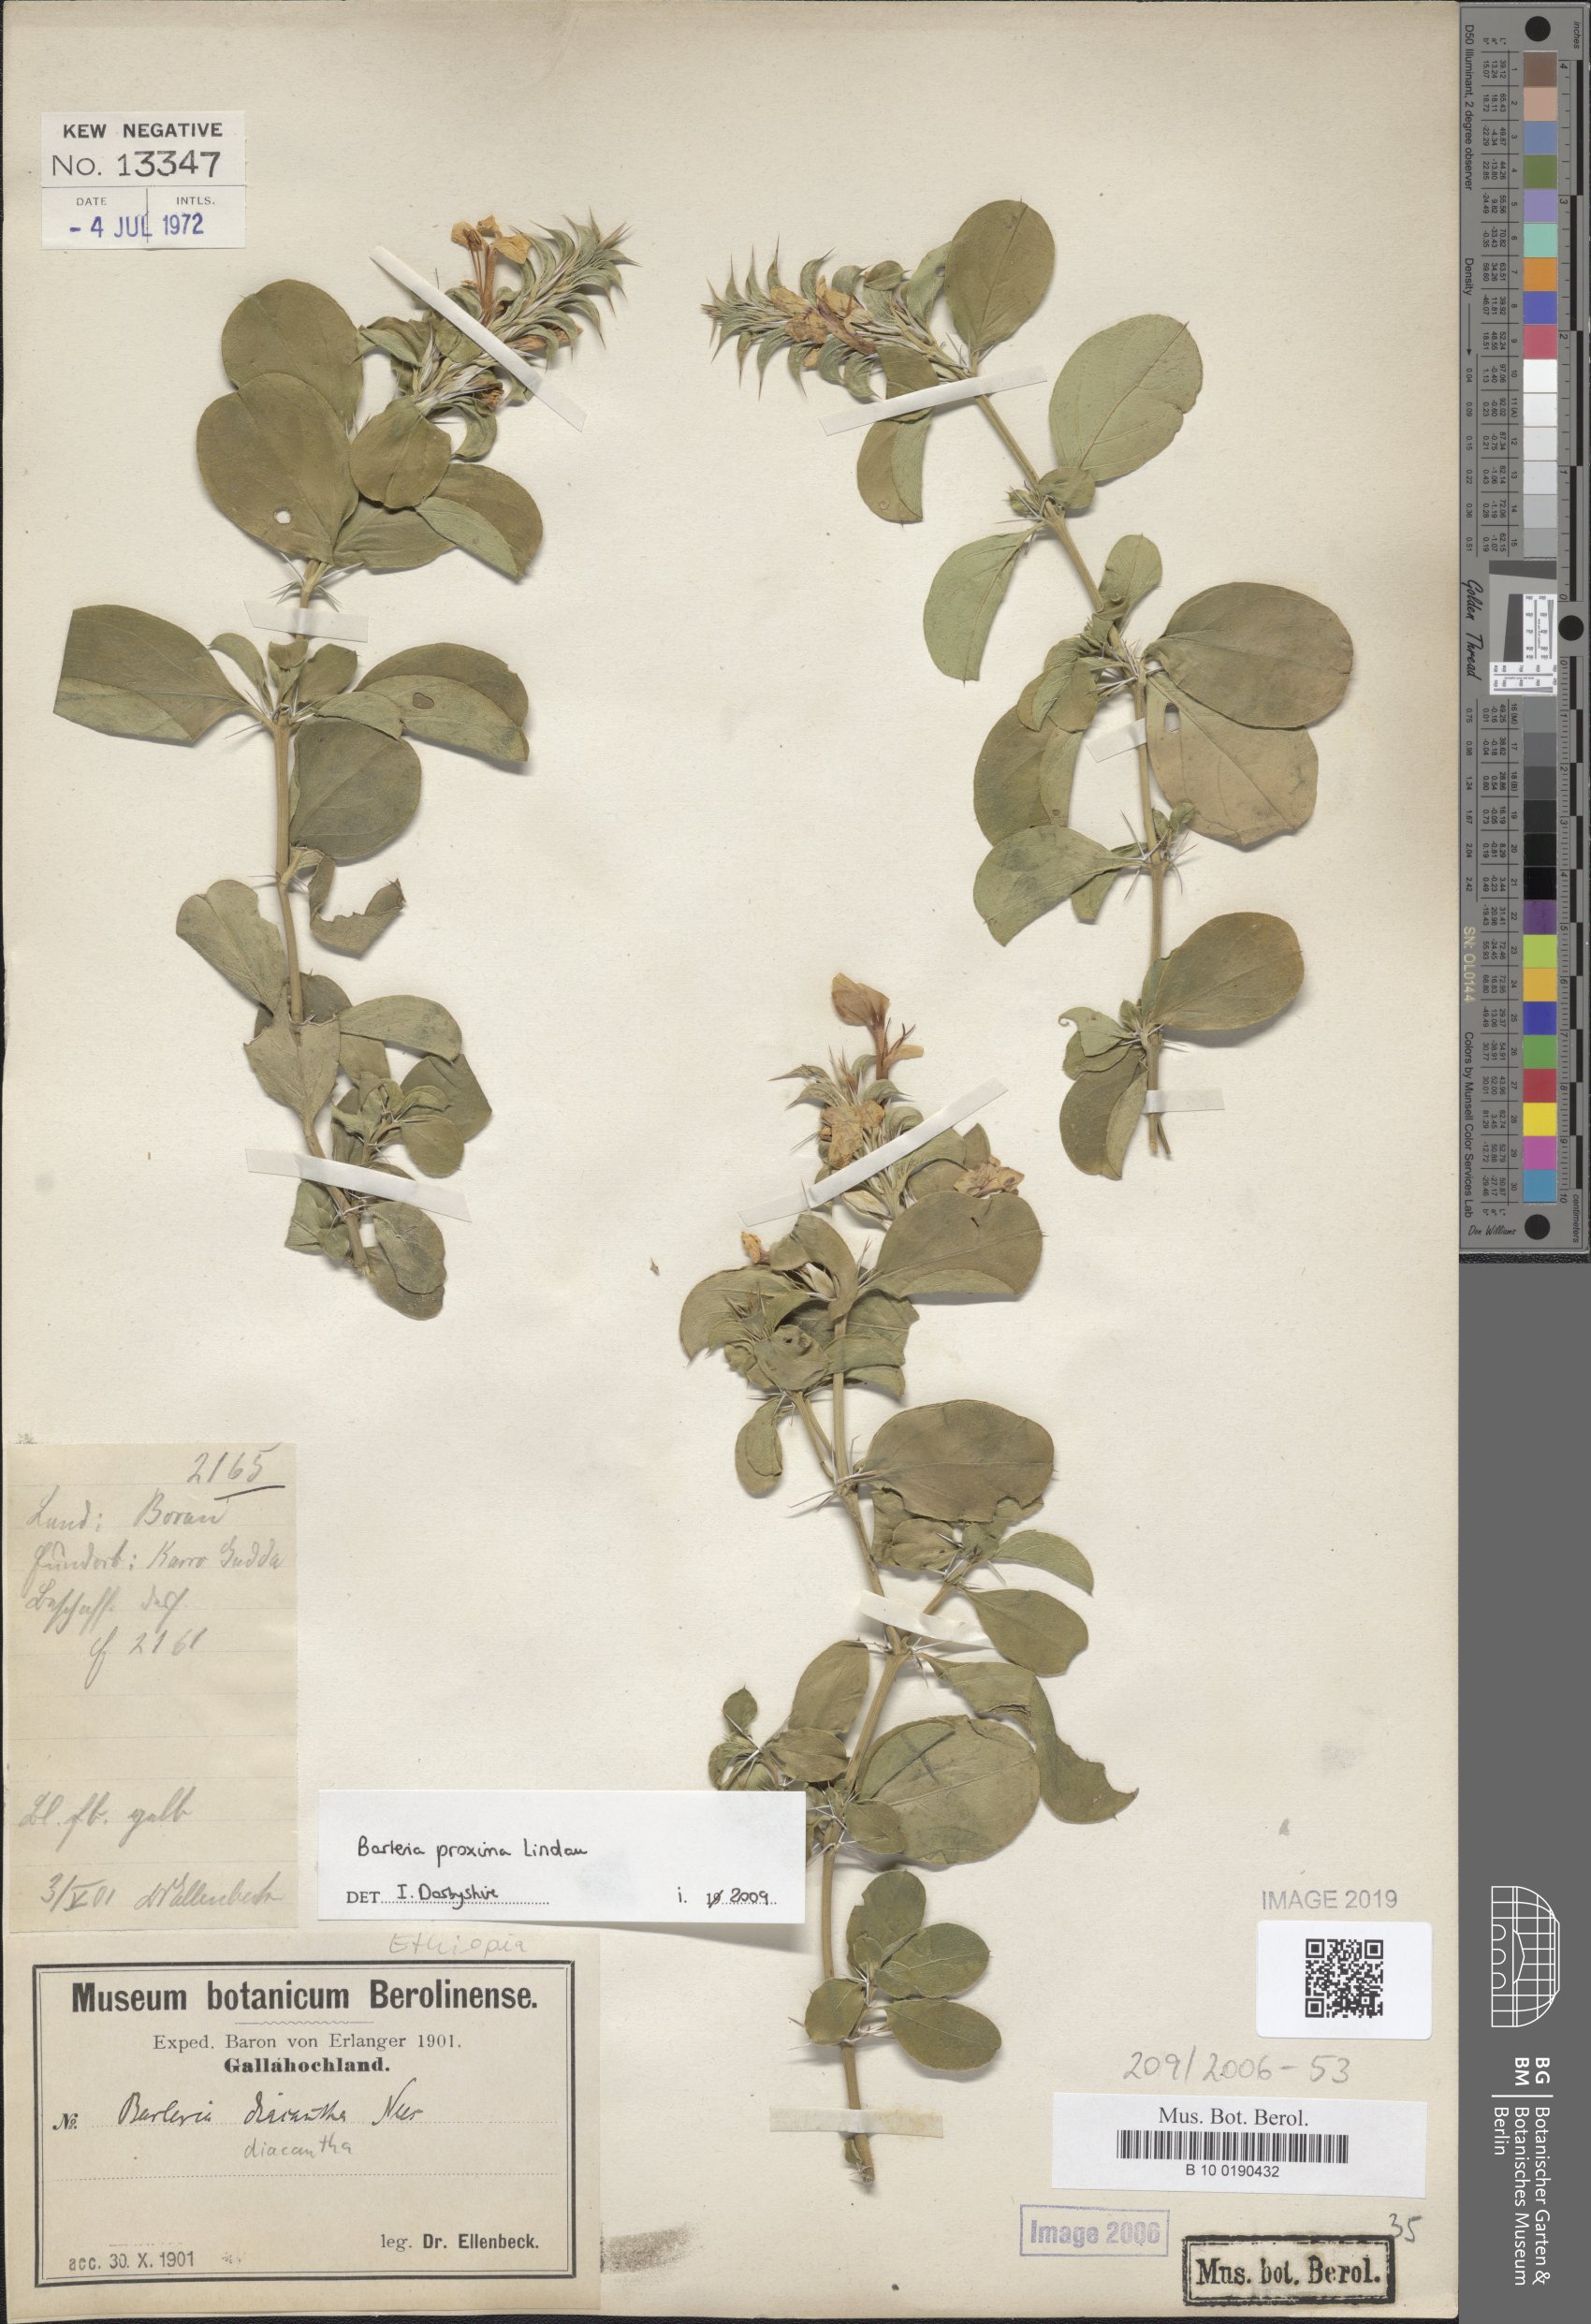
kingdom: Plantae
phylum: Tracheophyta
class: Magnoliopsida
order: Lamiales
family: Acanthaceae
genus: Barleria
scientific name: Barleria trispinosa
